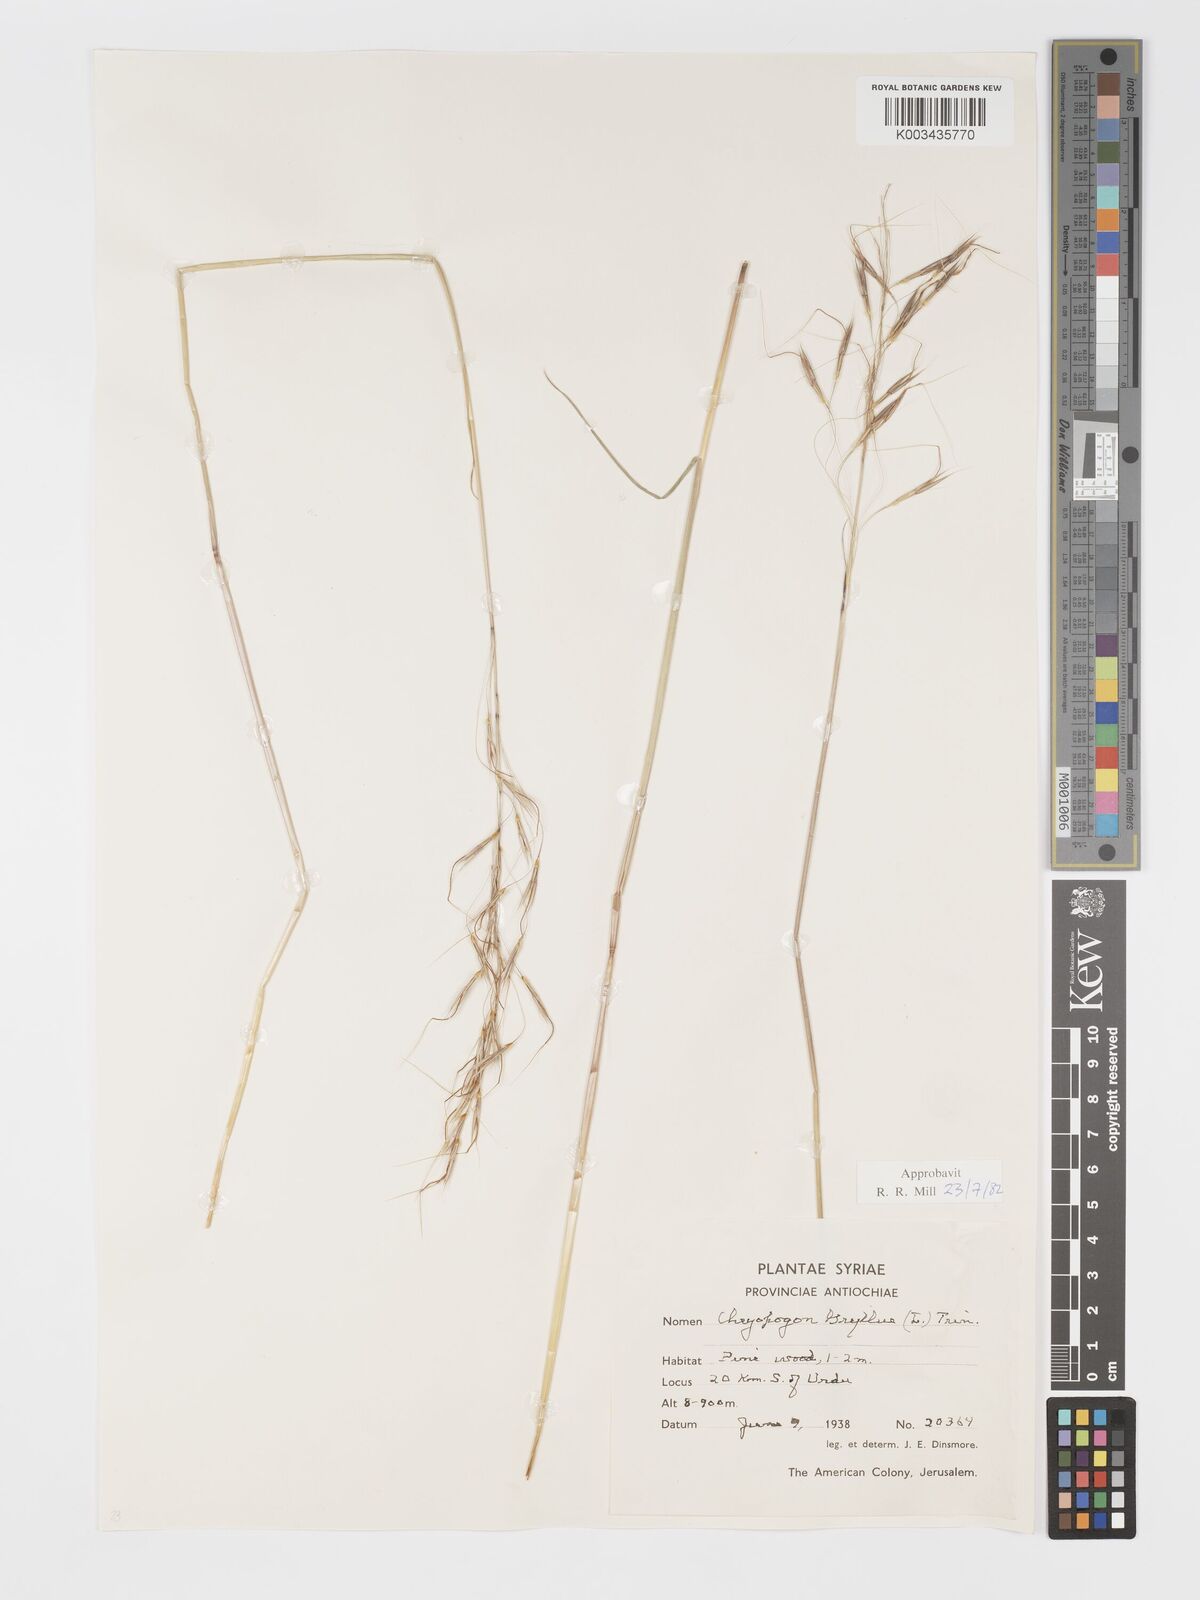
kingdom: Plantae
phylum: Tracheophyta
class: Liliopsida
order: Poales
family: Poaceae
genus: Chrysopogon
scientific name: Chrysopogon gryllus
